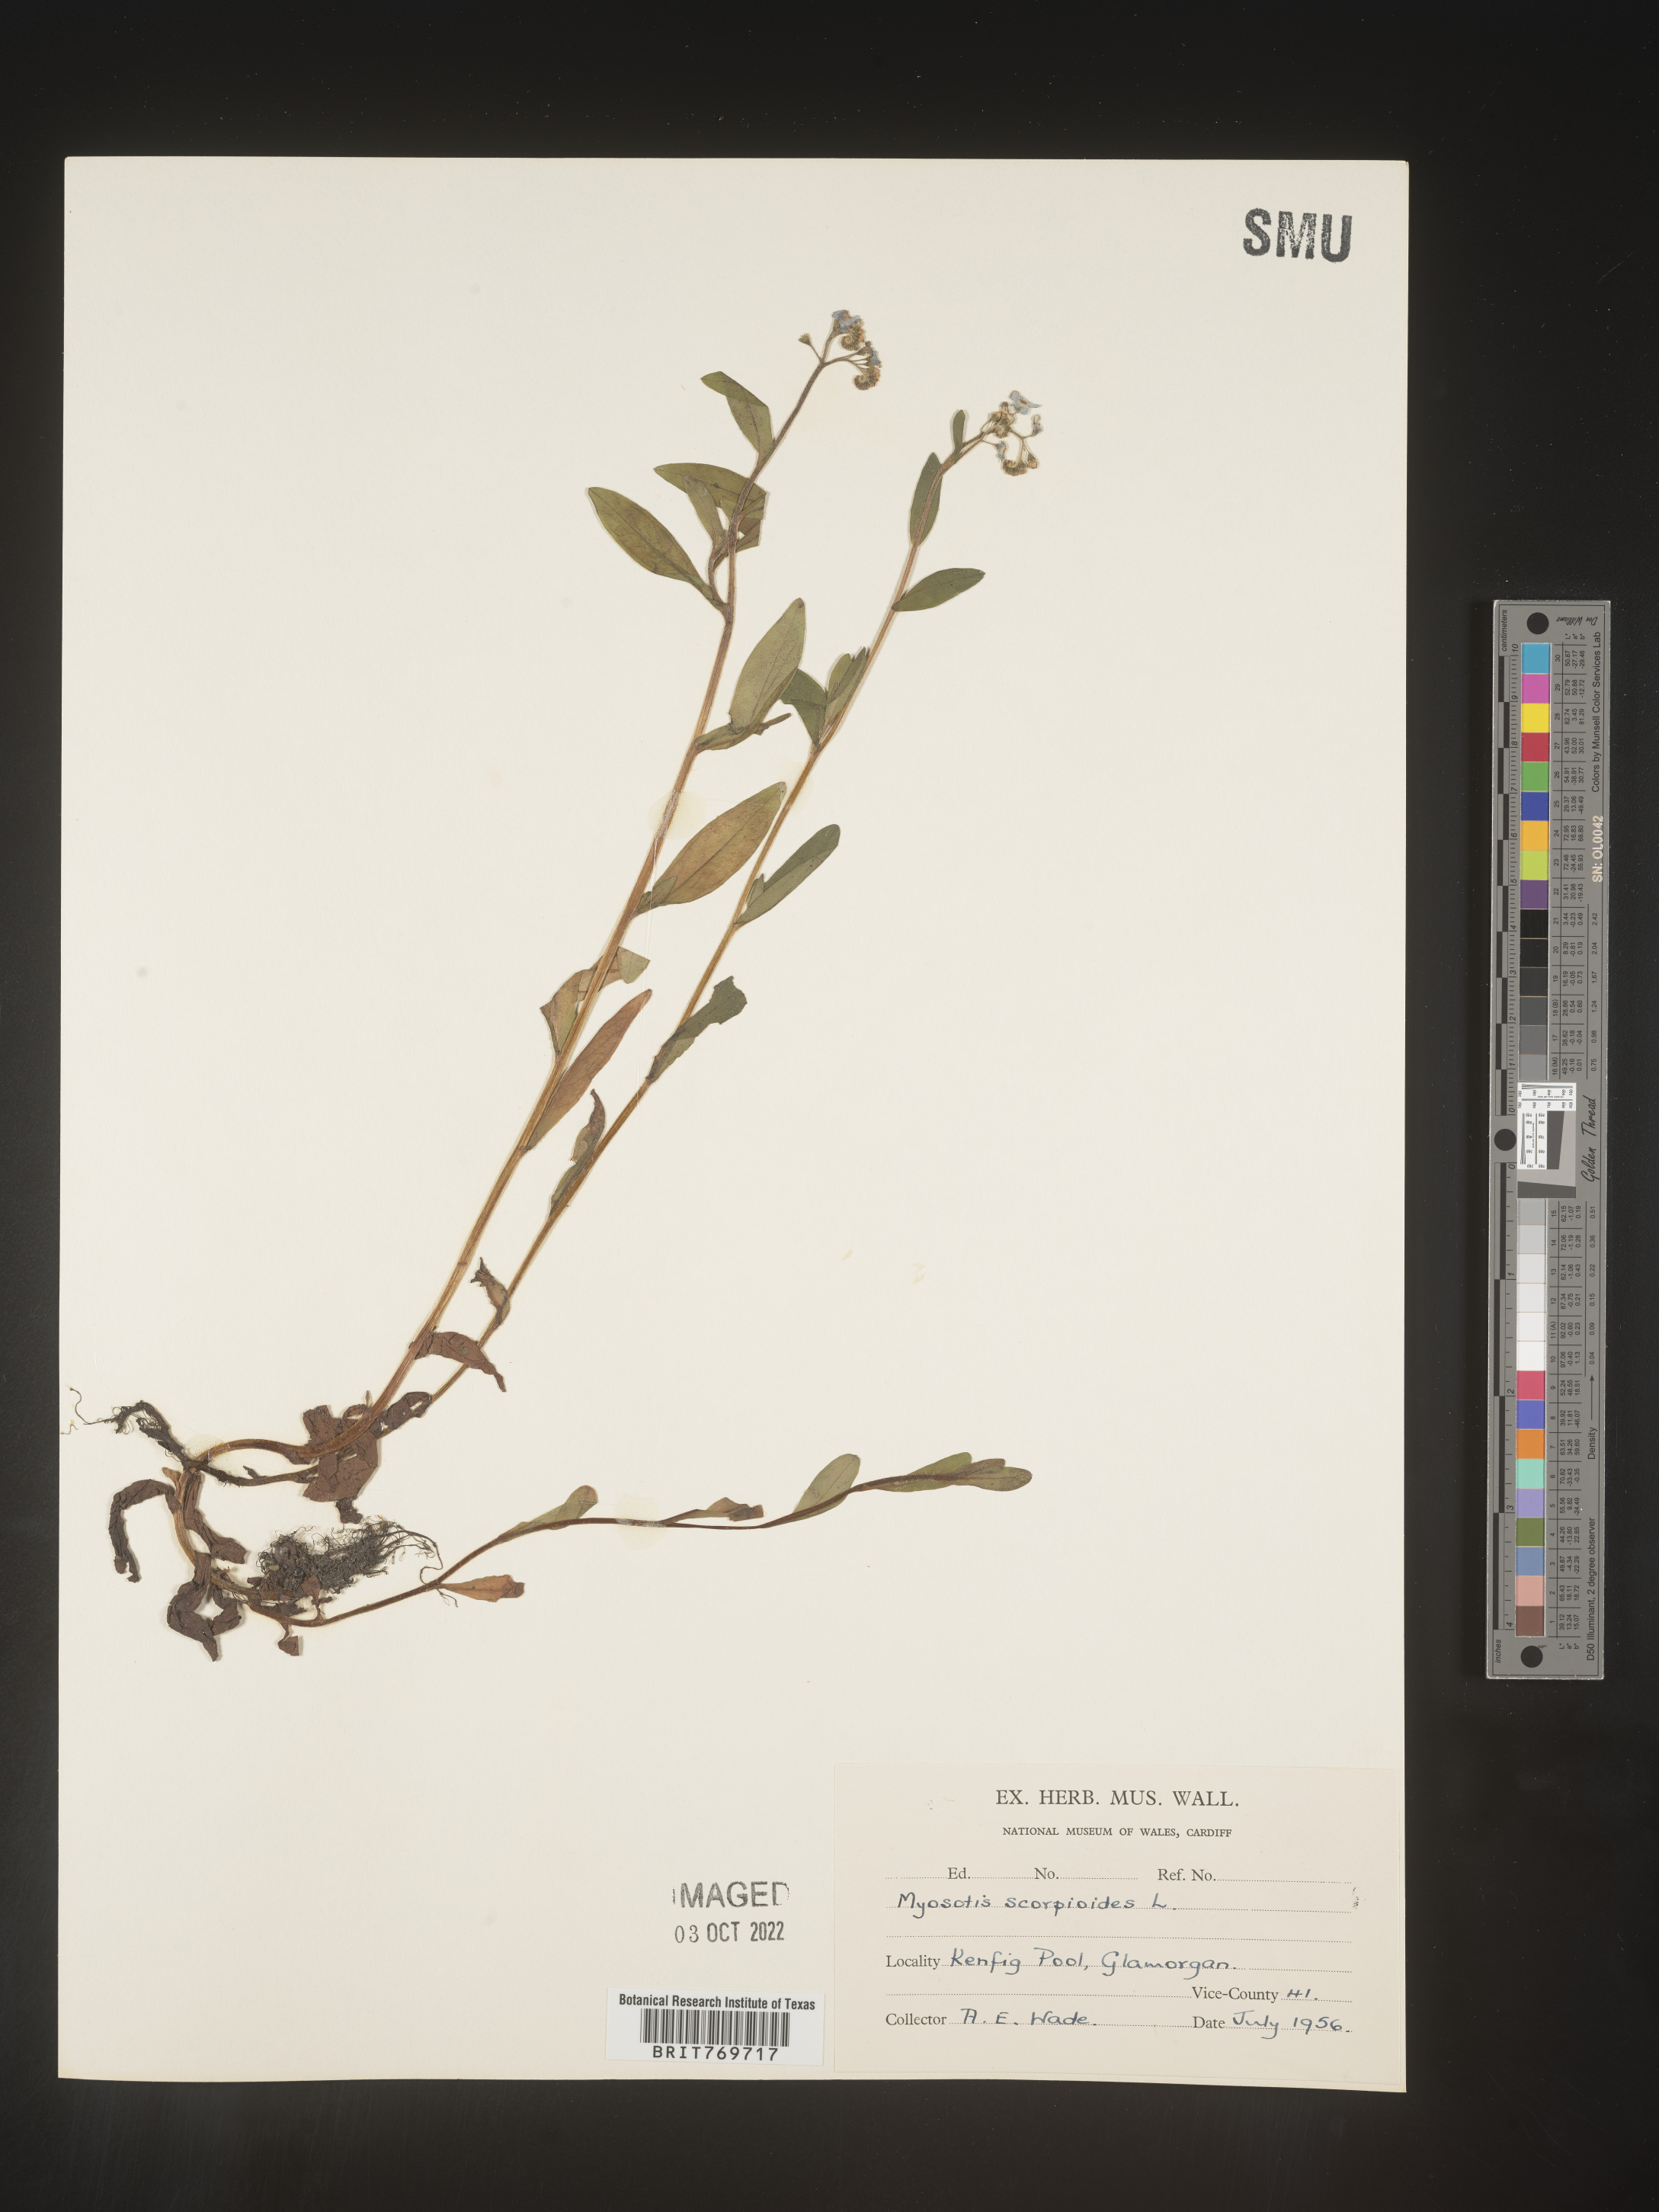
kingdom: Plantae
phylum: Tracheophyta
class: Magnoliopsida
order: Boraginales
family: Boraginaceae
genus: Myosotis
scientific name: Myosotis
